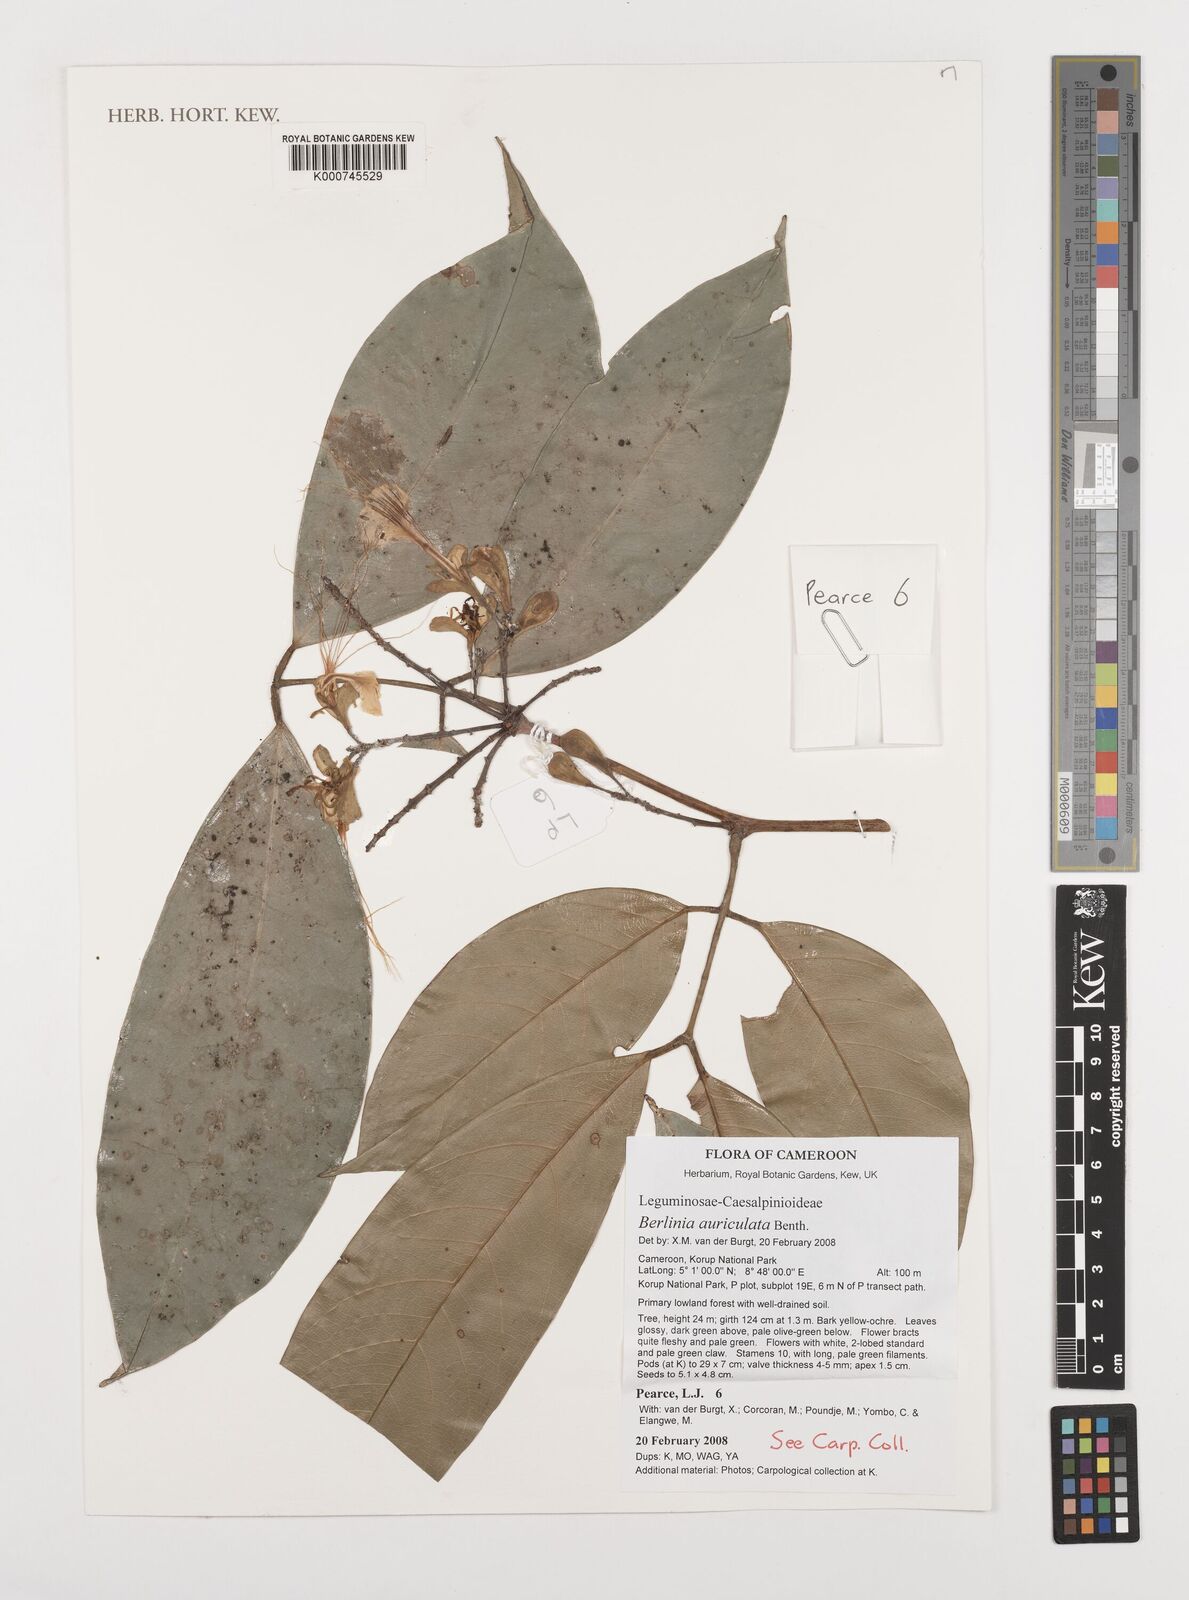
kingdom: Plantae
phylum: Tracheophyta
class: Magnoliopsida
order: Fabales
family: Fabaceae
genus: Berlinia
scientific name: Berlinia auriculata
